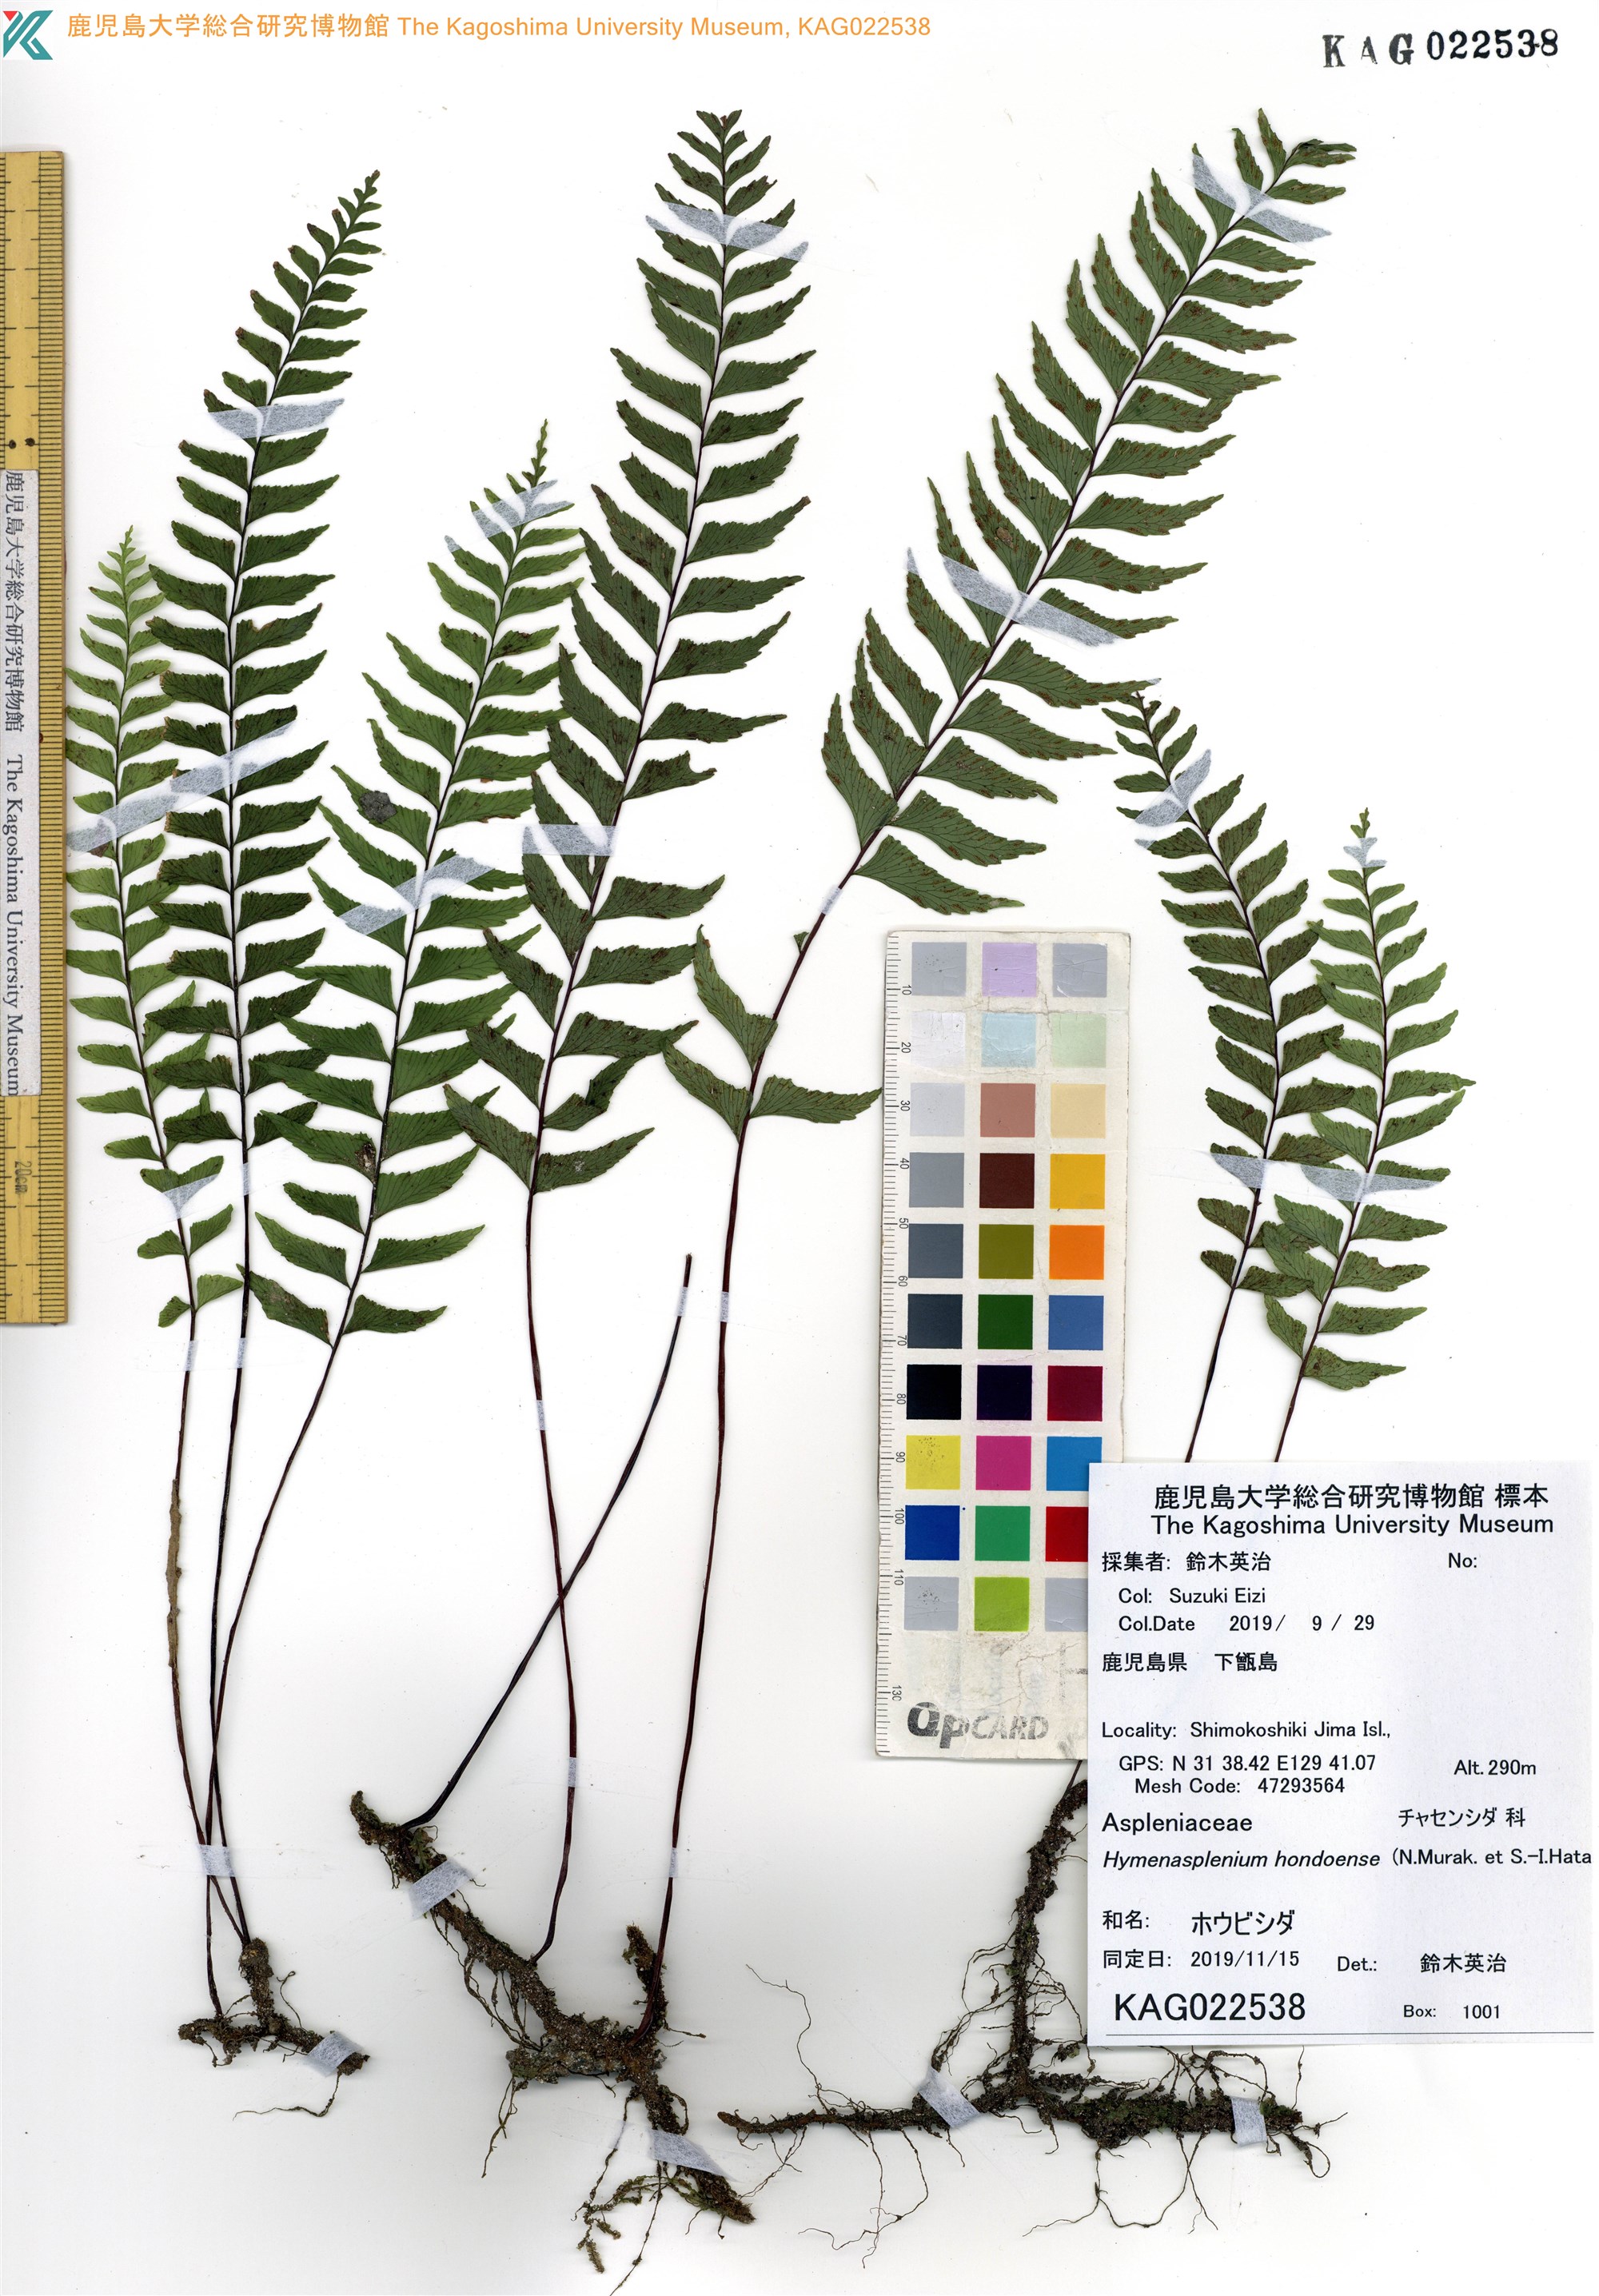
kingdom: Plantae
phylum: Tracheophyta
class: Polypodiopsida
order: Polypodiales
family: Aspleniaceae
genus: Hymenasplenium
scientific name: Hymenasplenium murakami-hatanakae
